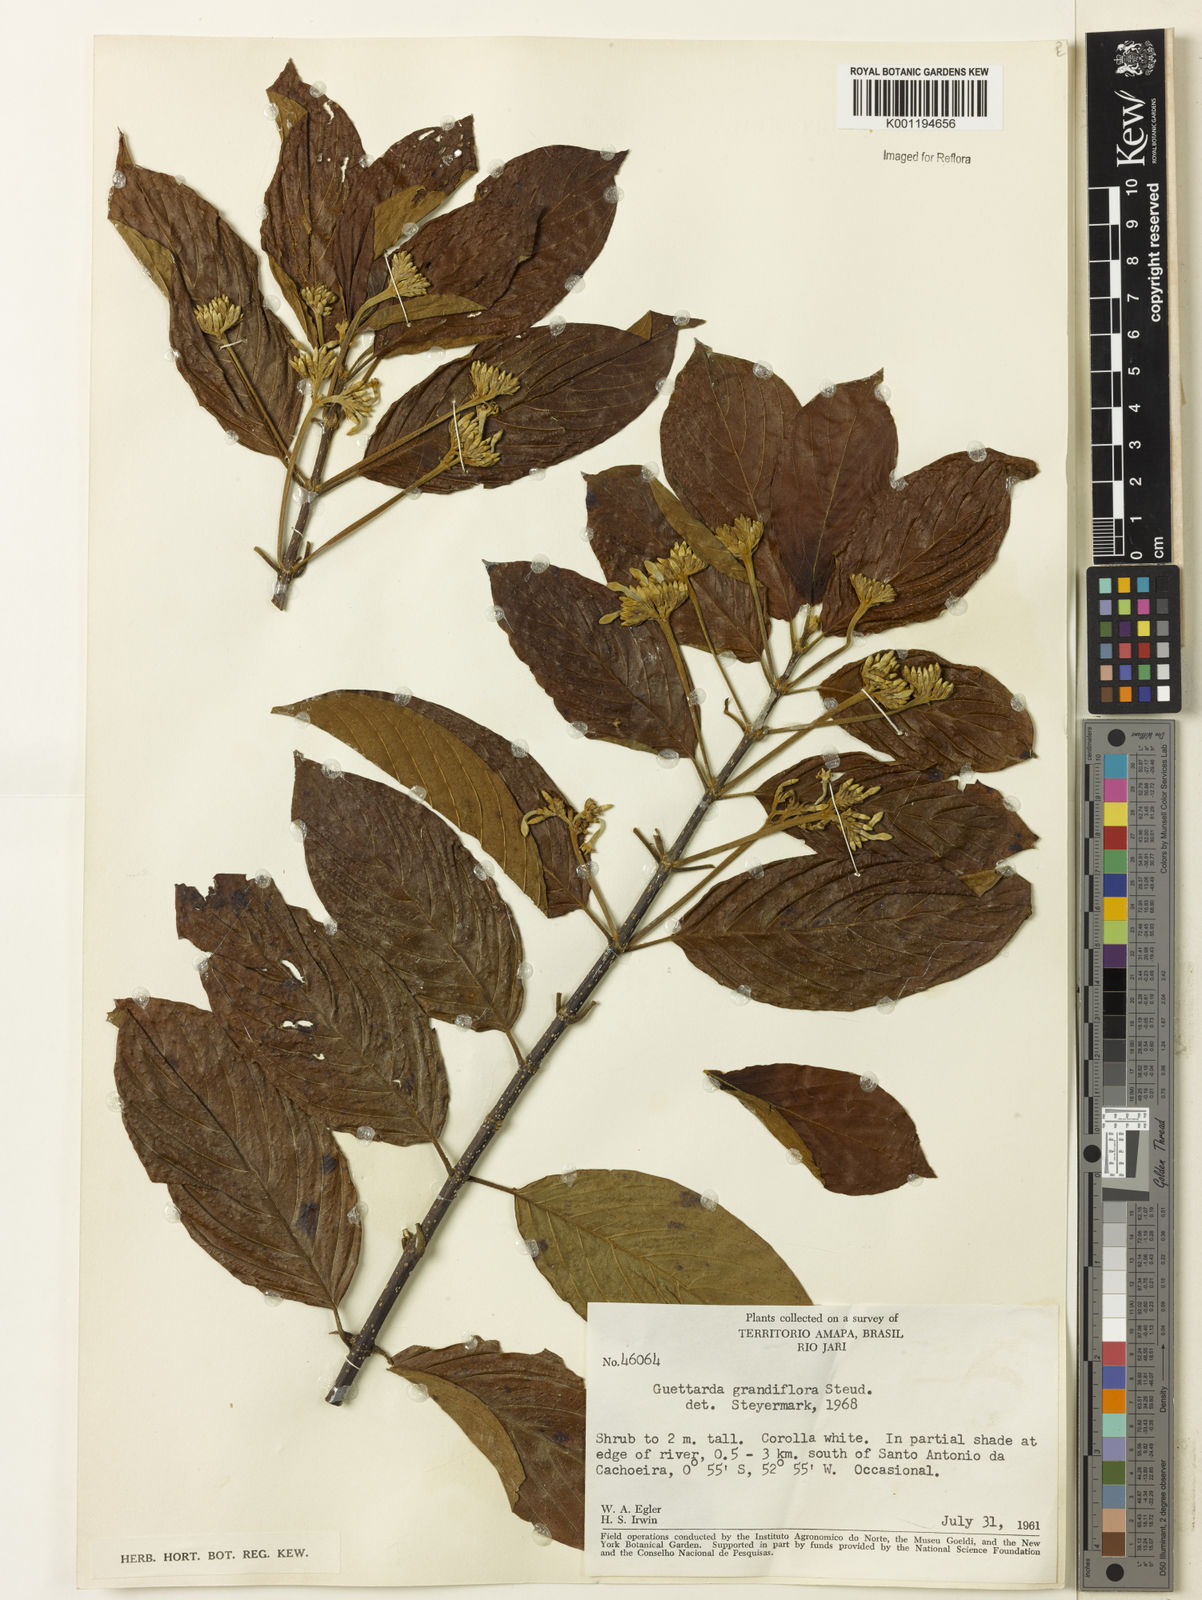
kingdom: Plantae
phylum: Tracheophyta
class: Magnoliopsida
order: Gentianales
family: Rubiaceae
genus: Guettarda
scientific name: Guettarda aromatica
